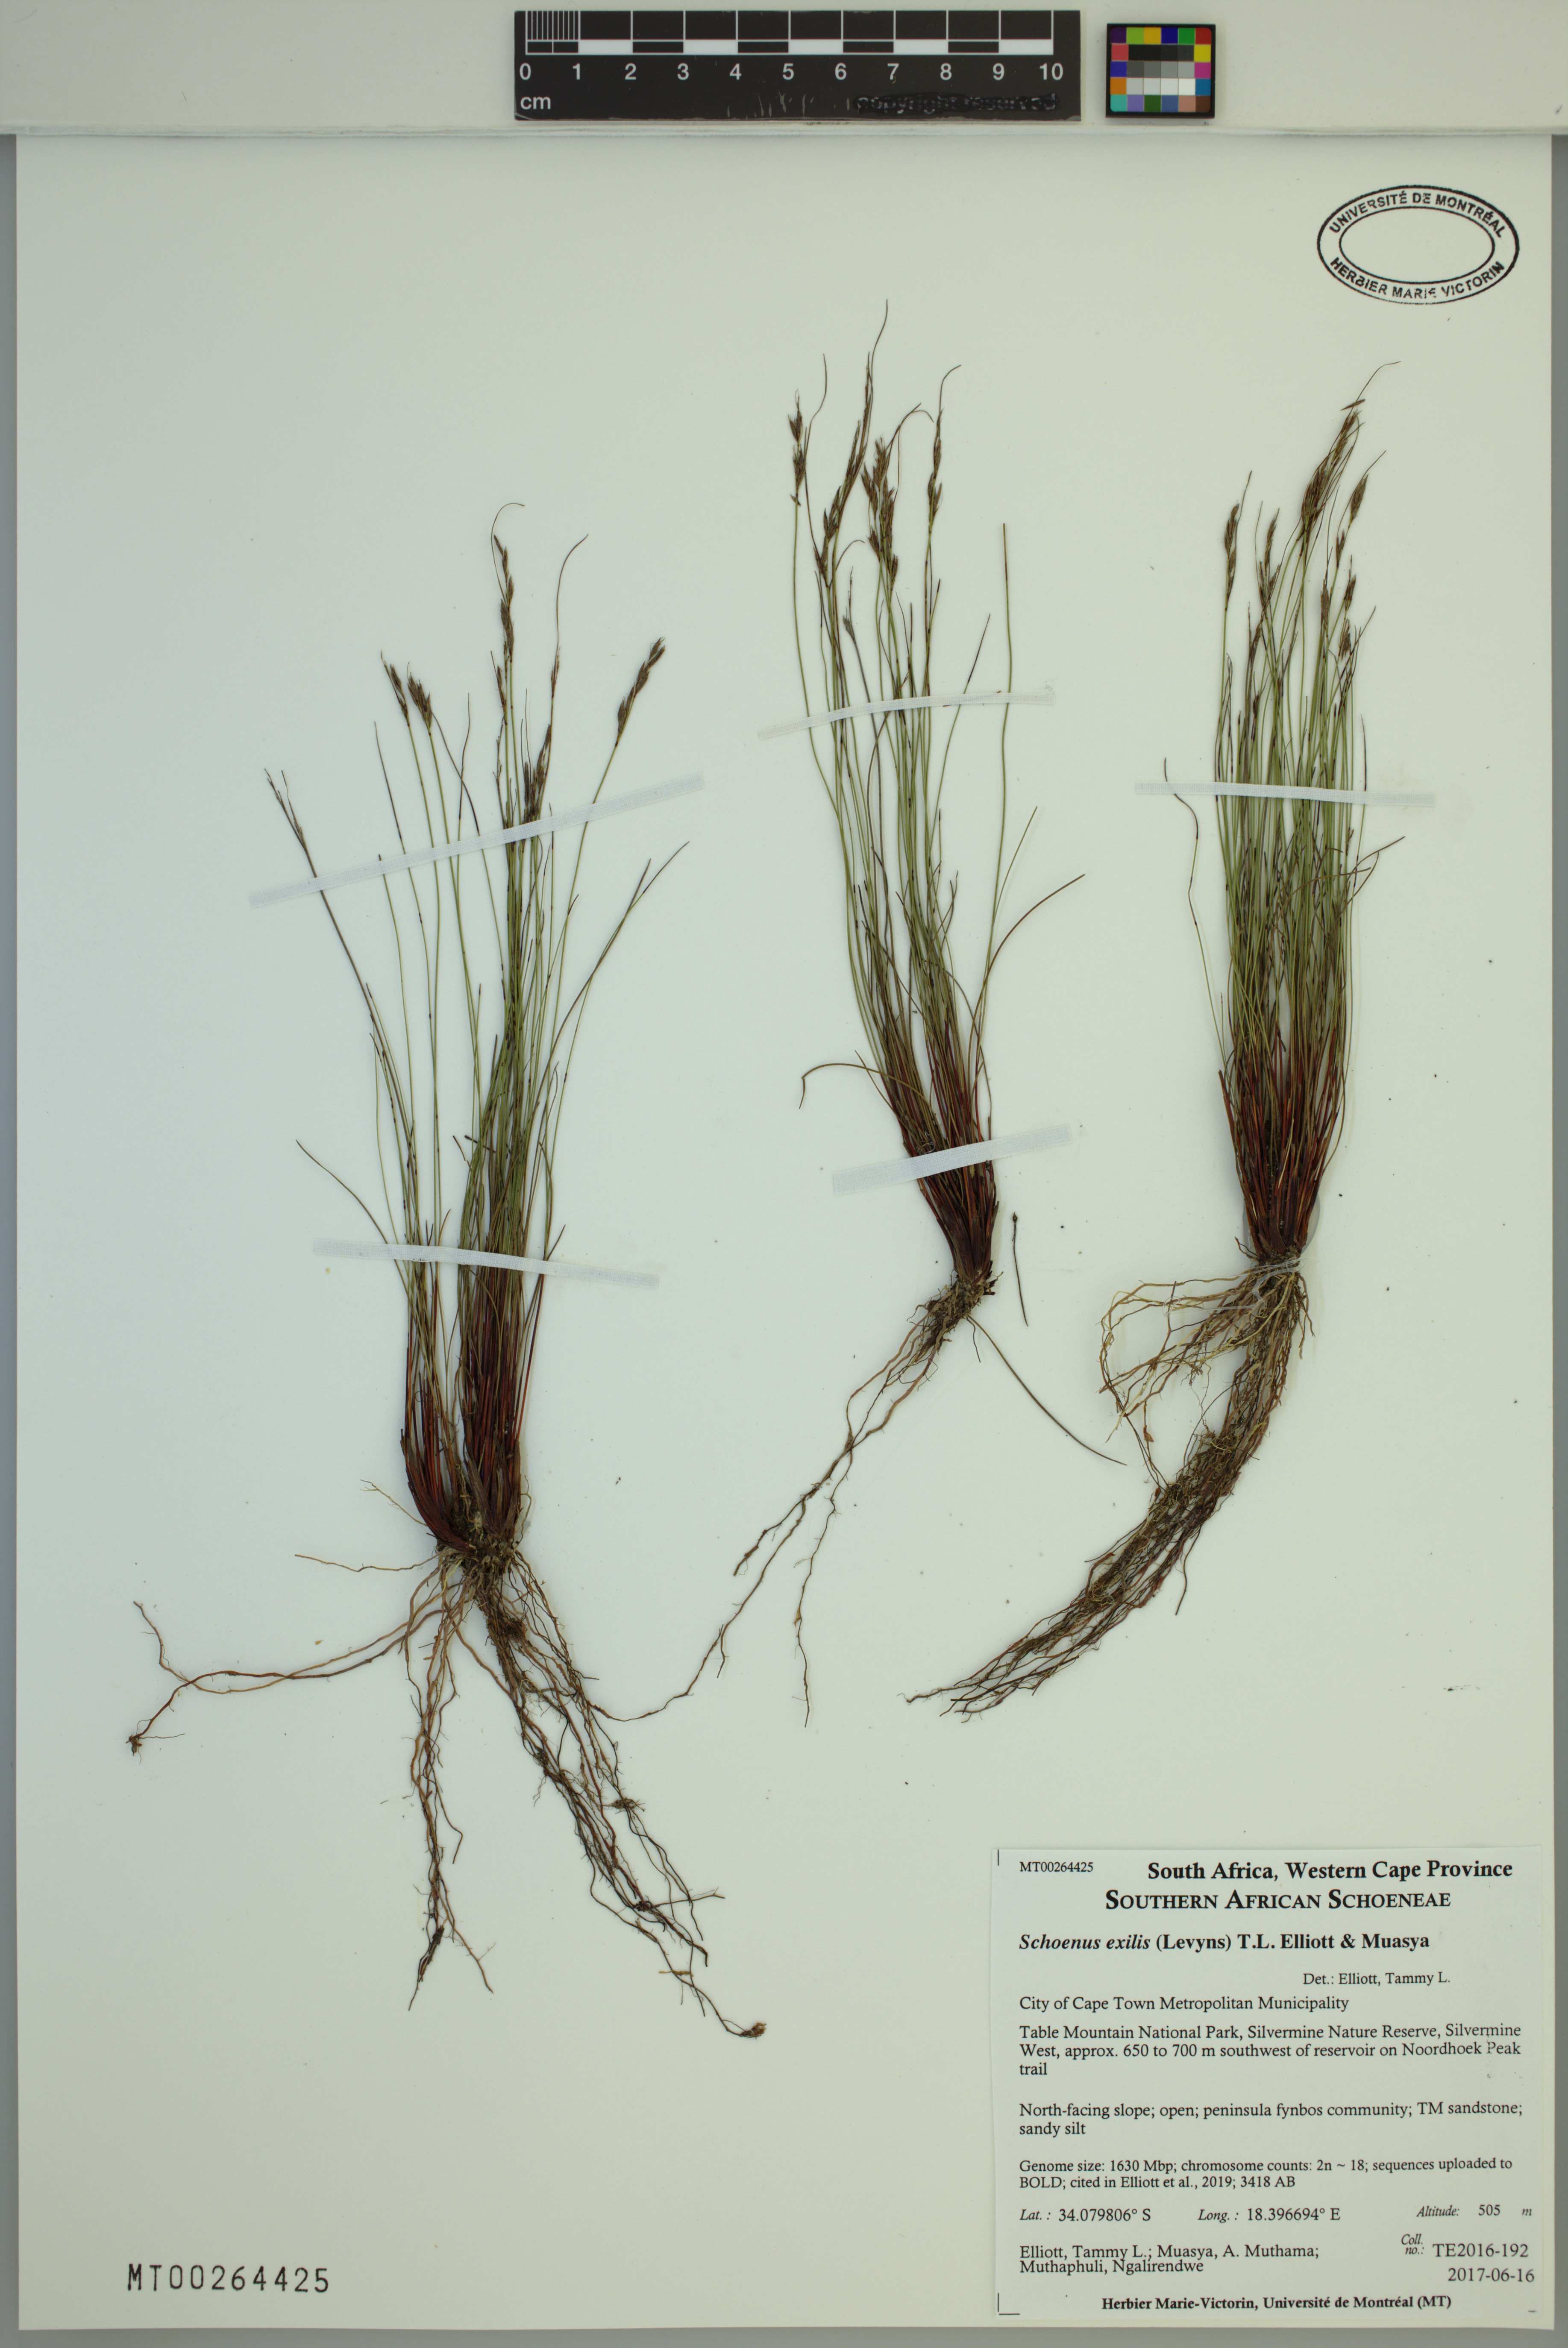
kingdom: Plantae
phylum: Tracheophyta
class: Liliopsida
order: Poales
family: Cyperaceae
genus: Schoenus
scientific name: Schoenus exilis
